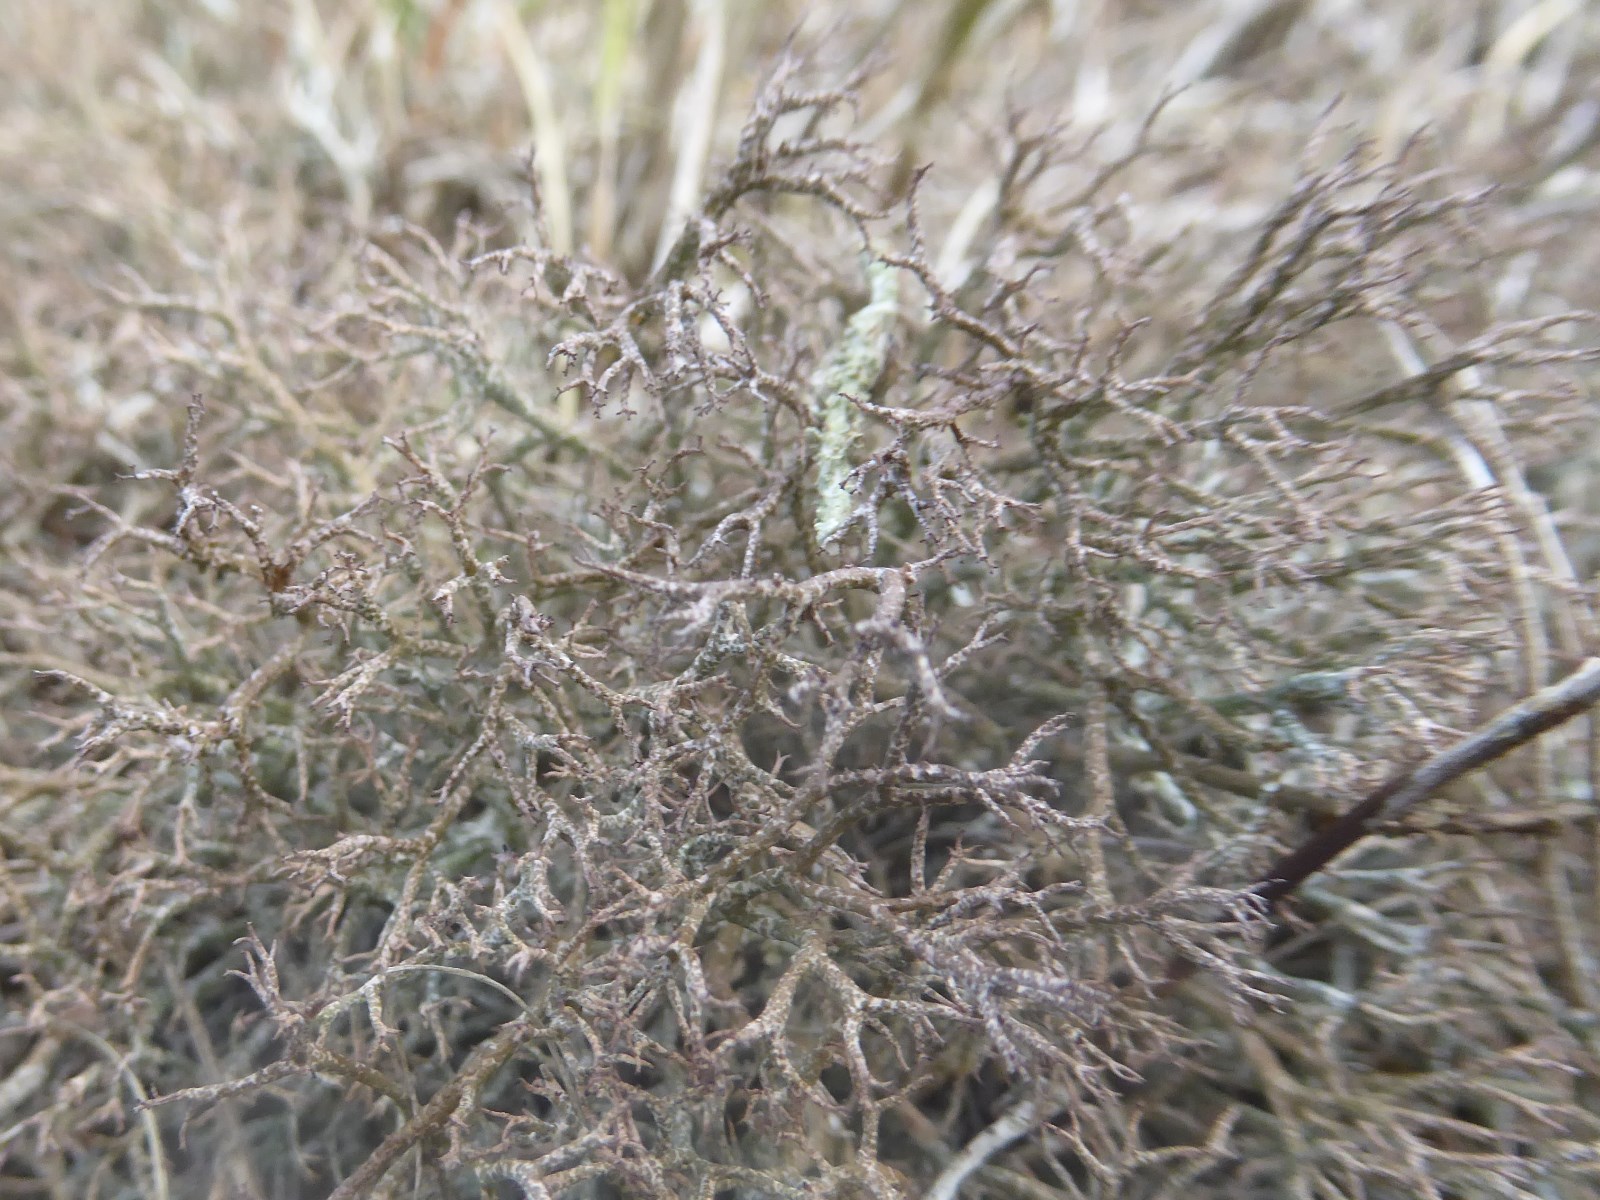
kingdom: Fungi
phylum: Ascomycota
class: Lecanoromycetes
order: Lecanorales
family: Cladoniaceae
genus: Cladonia
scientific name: Cladonia rangiformis
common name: spættet bægerlav
